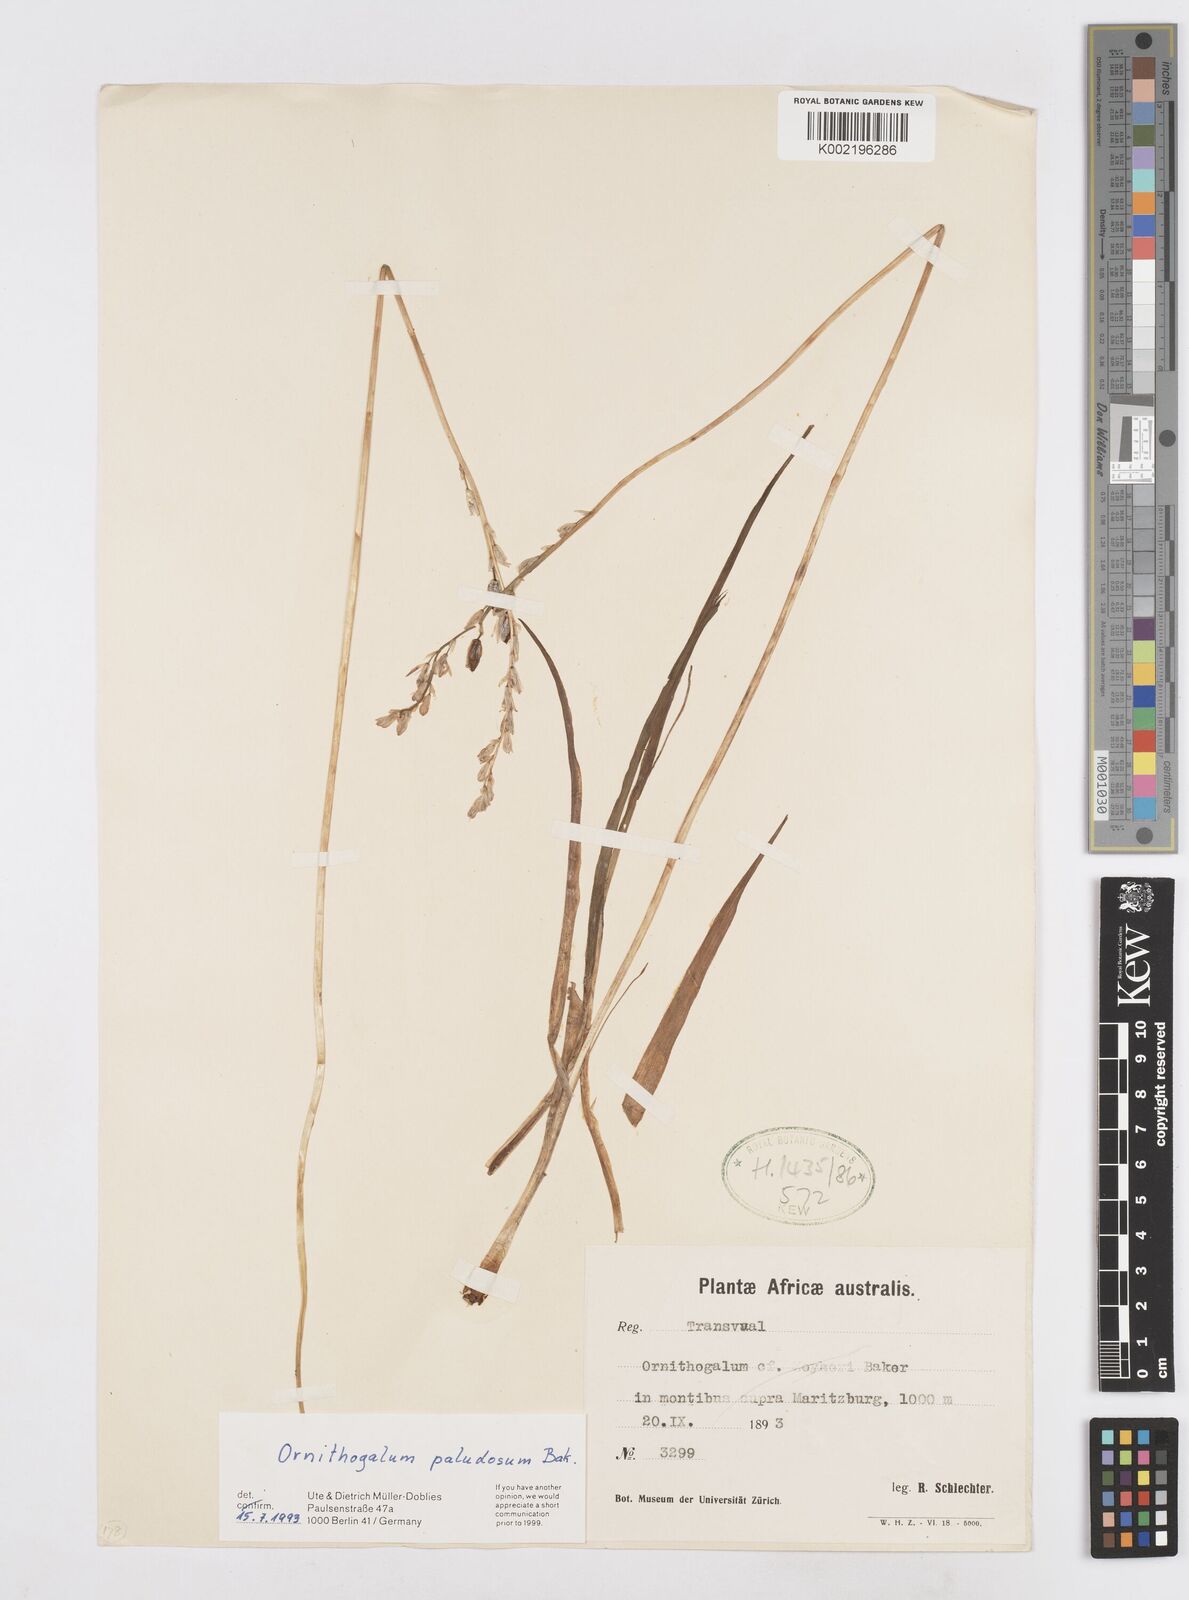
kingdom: Plantae
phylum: Tracheophyta
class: Liliopsida
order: Asparagales
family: Asparagaceae
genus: Ornithogalum
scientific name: Ornithogalum paludosum
